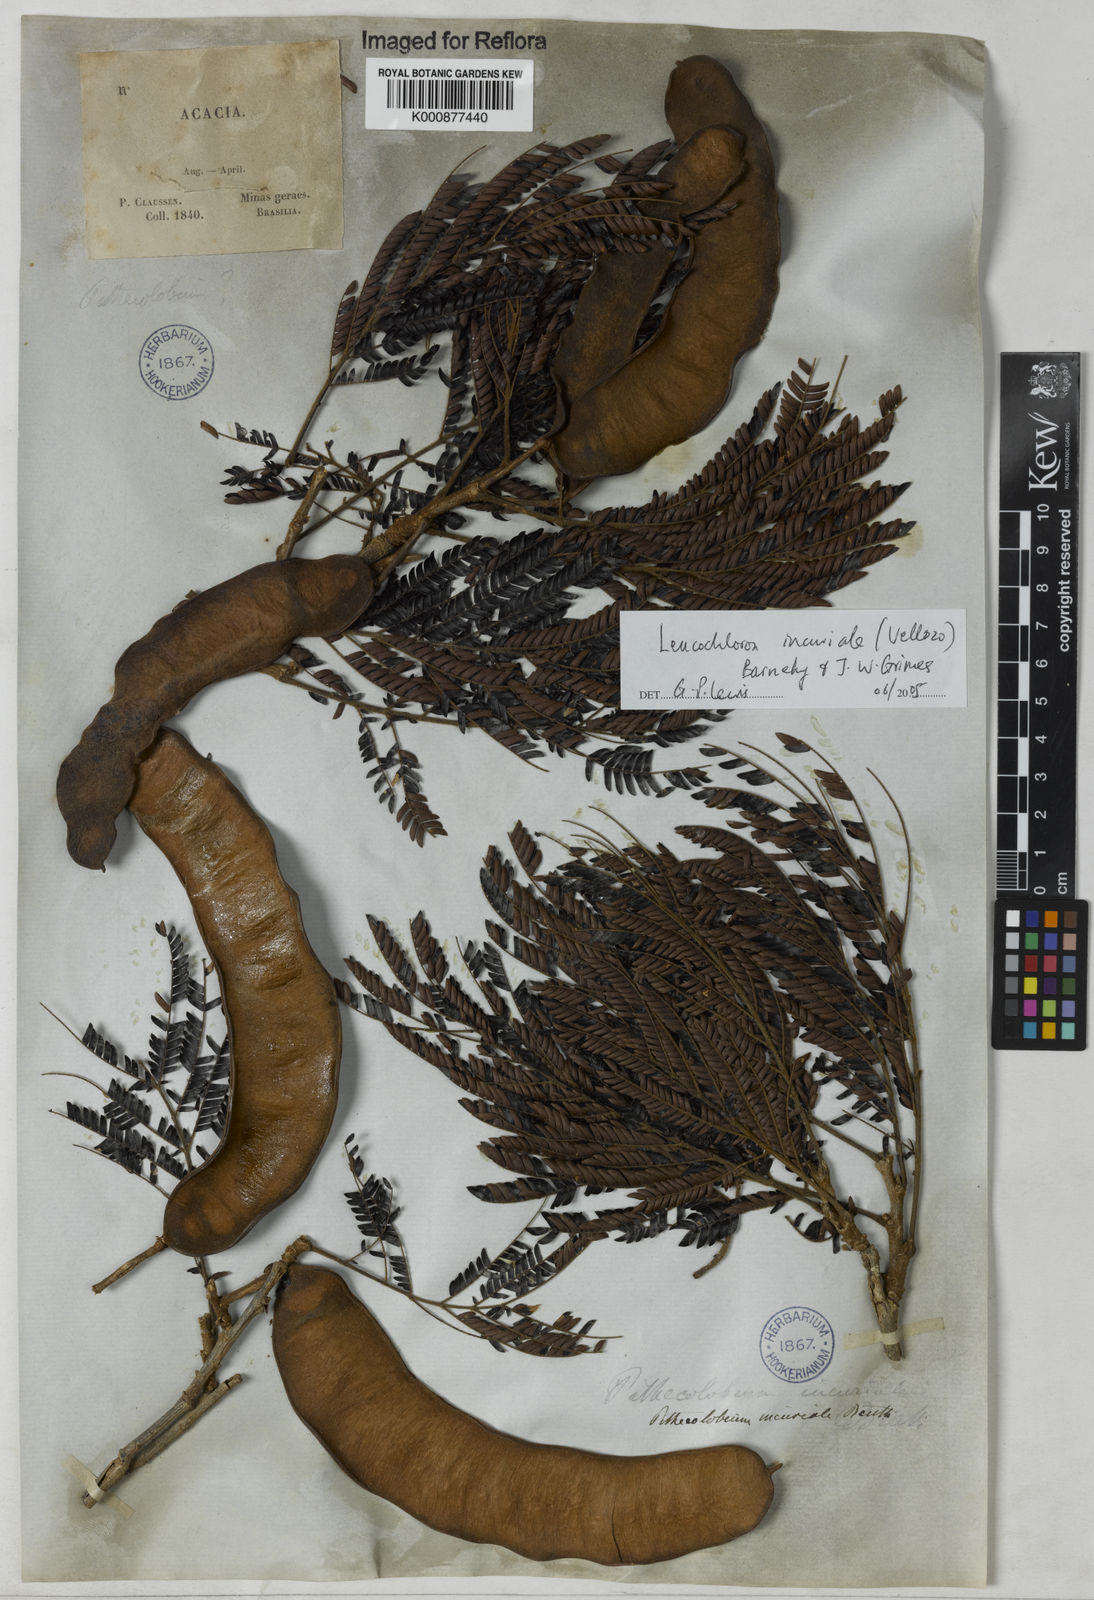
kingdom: Plantae
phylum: Tracheophyta
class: Magnoliopsida
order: Fabales
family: Fabaceae
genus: Leucochloron
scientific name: Leucochloron incuriale
